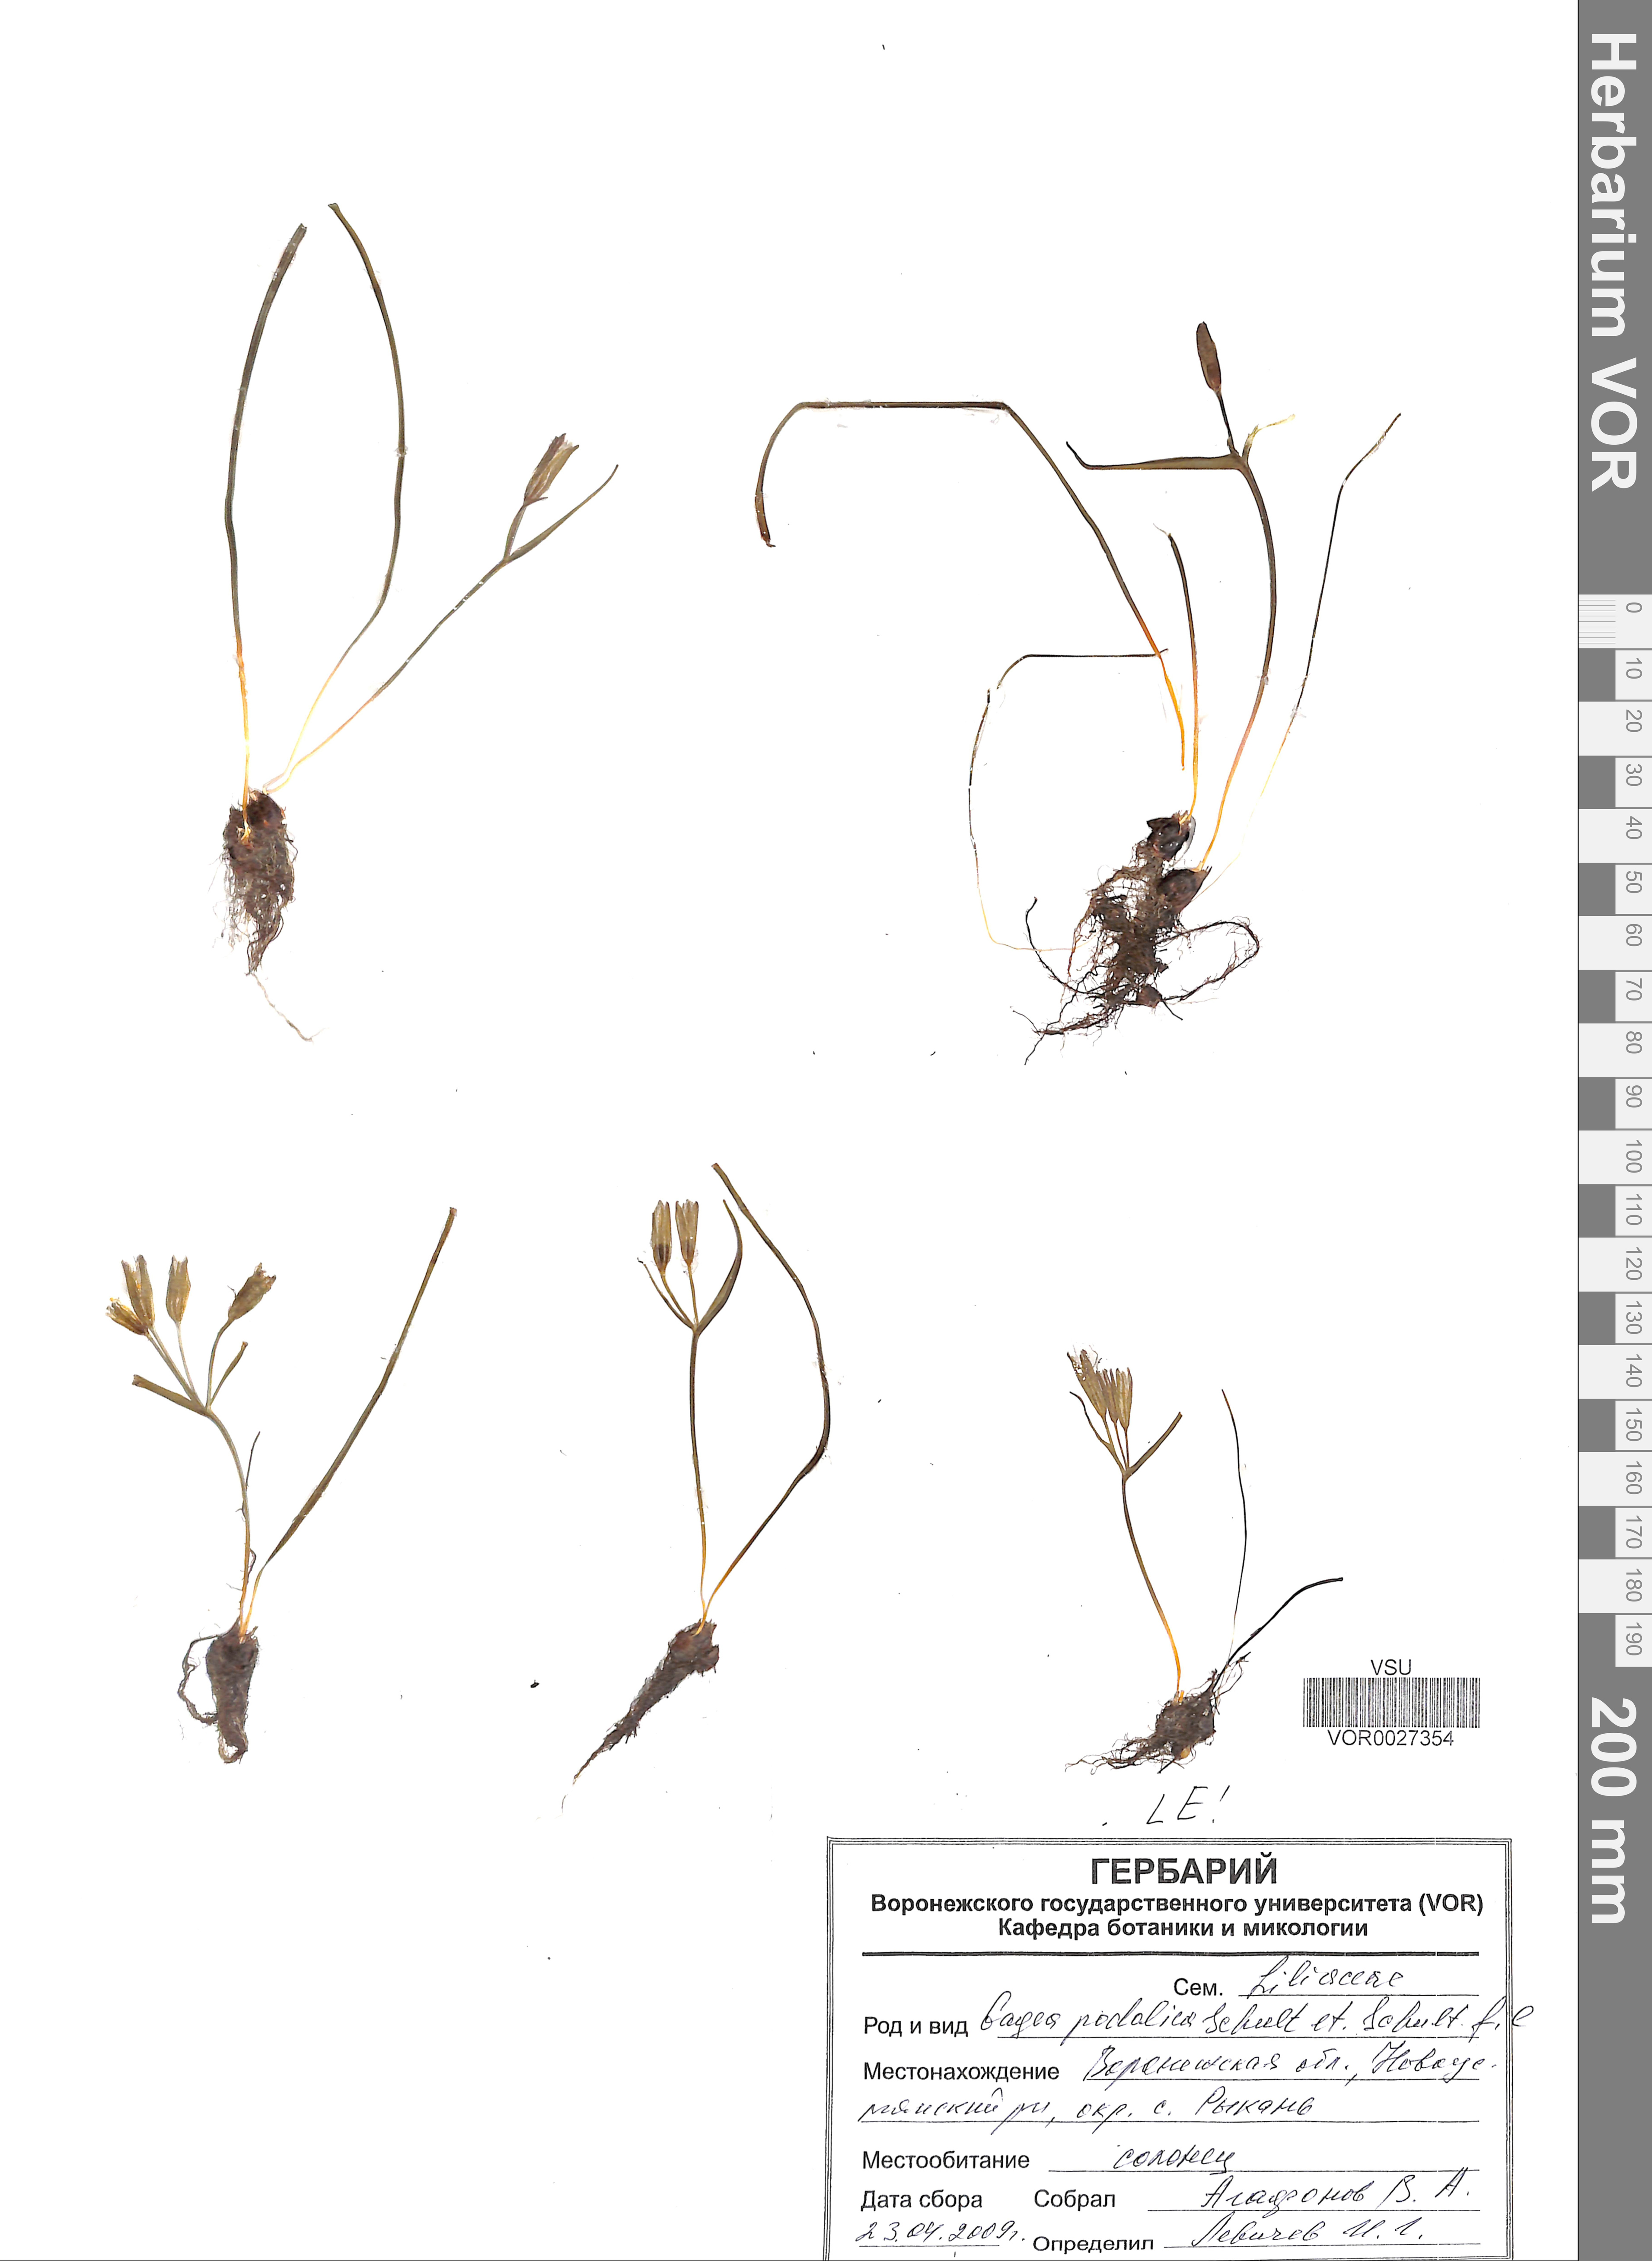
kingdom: Plantae
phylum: Tracheophyta
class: Liliopsida
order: Liliales
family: Liliaceae
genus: Gagea
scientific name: Gagea podolica
